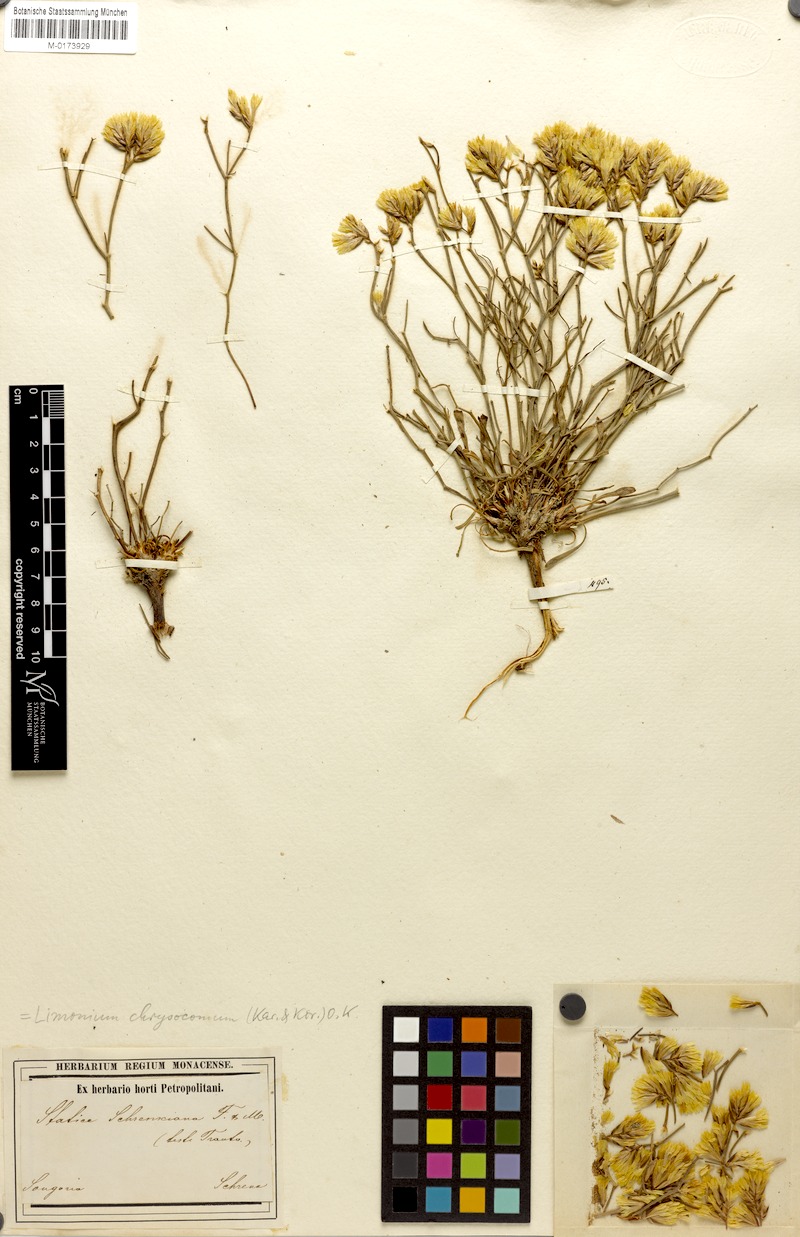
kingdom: Plantae
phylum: Tracheophyta
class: Magnoliopsida
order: Caryophyllales
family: Plumbaginaceae
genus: Limonium
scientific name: Limonium chrysocomum
